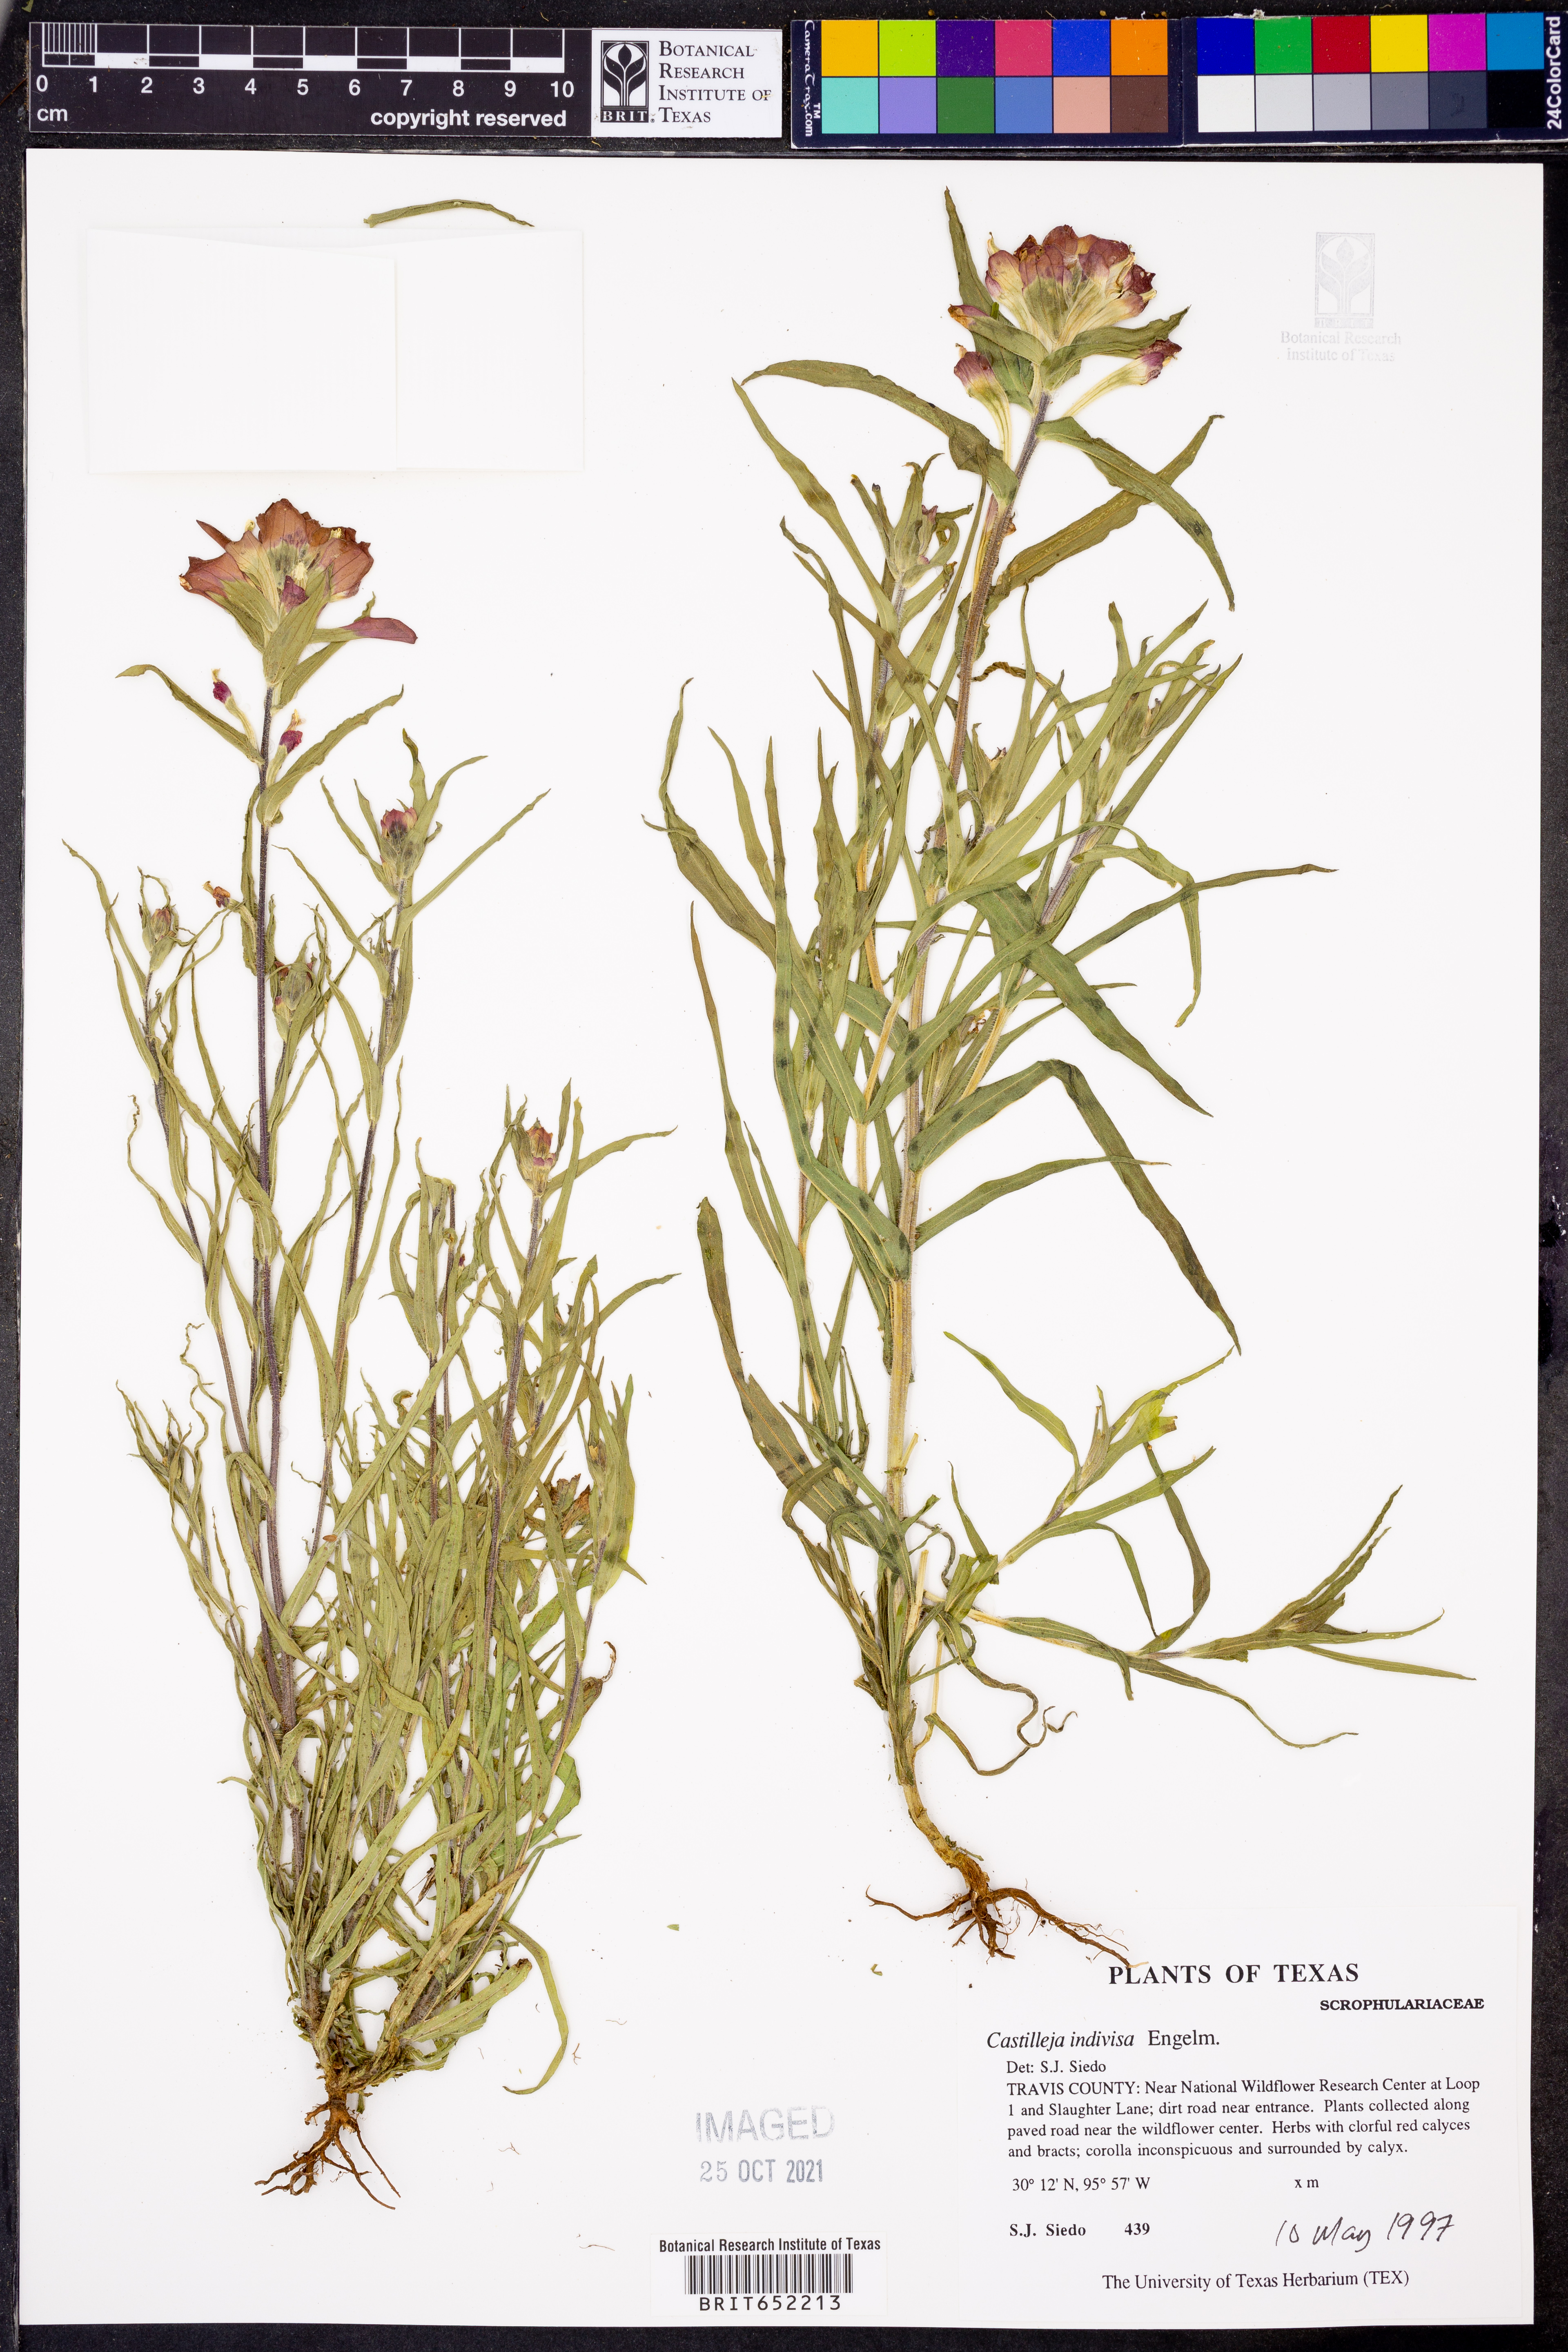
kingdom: Plantae
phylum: Tracheophyta
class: Magnoliopsida
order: Lamiales
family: Orobanchaceae
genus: Castilleja
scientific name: Castilleja indivisa
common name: Texas paintbrush
